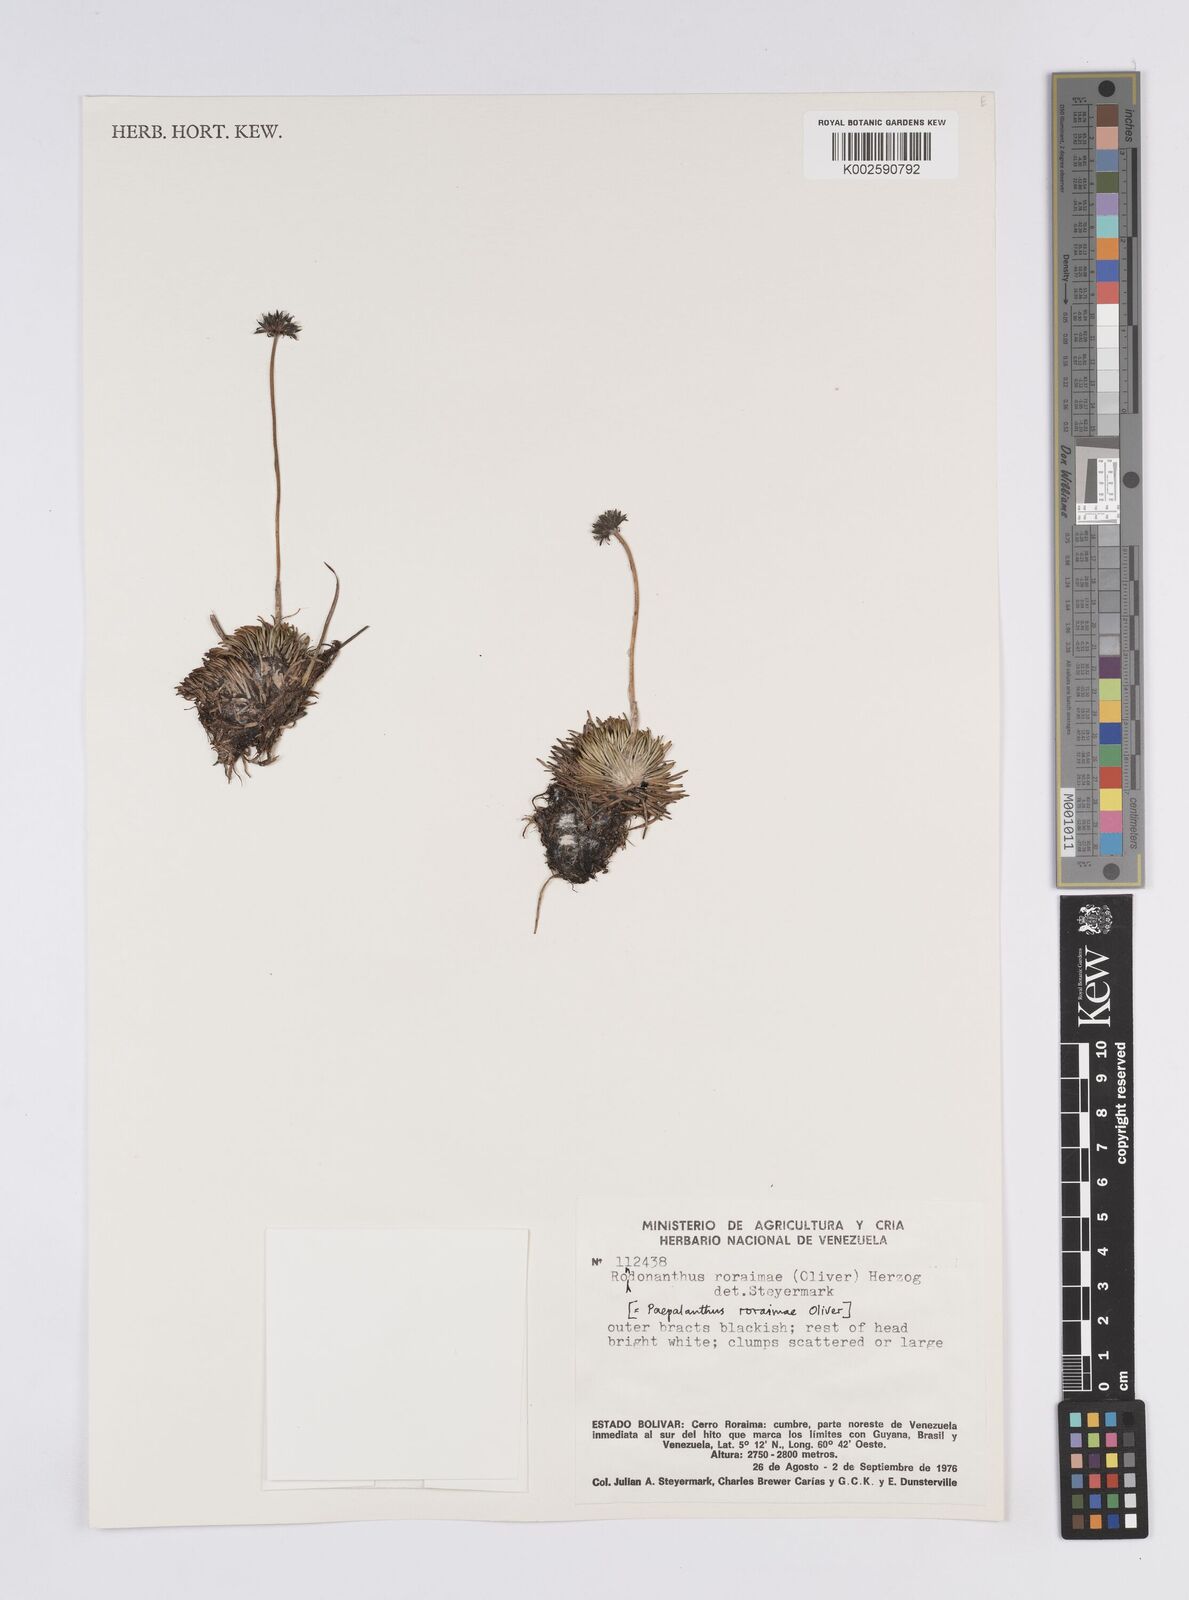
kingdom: Plantae
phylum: Tracheophyta
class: Liliopsida
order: Poales
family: Eriocaulaceae
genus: Rondonanthus
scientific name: Rondonanthus roraimae
